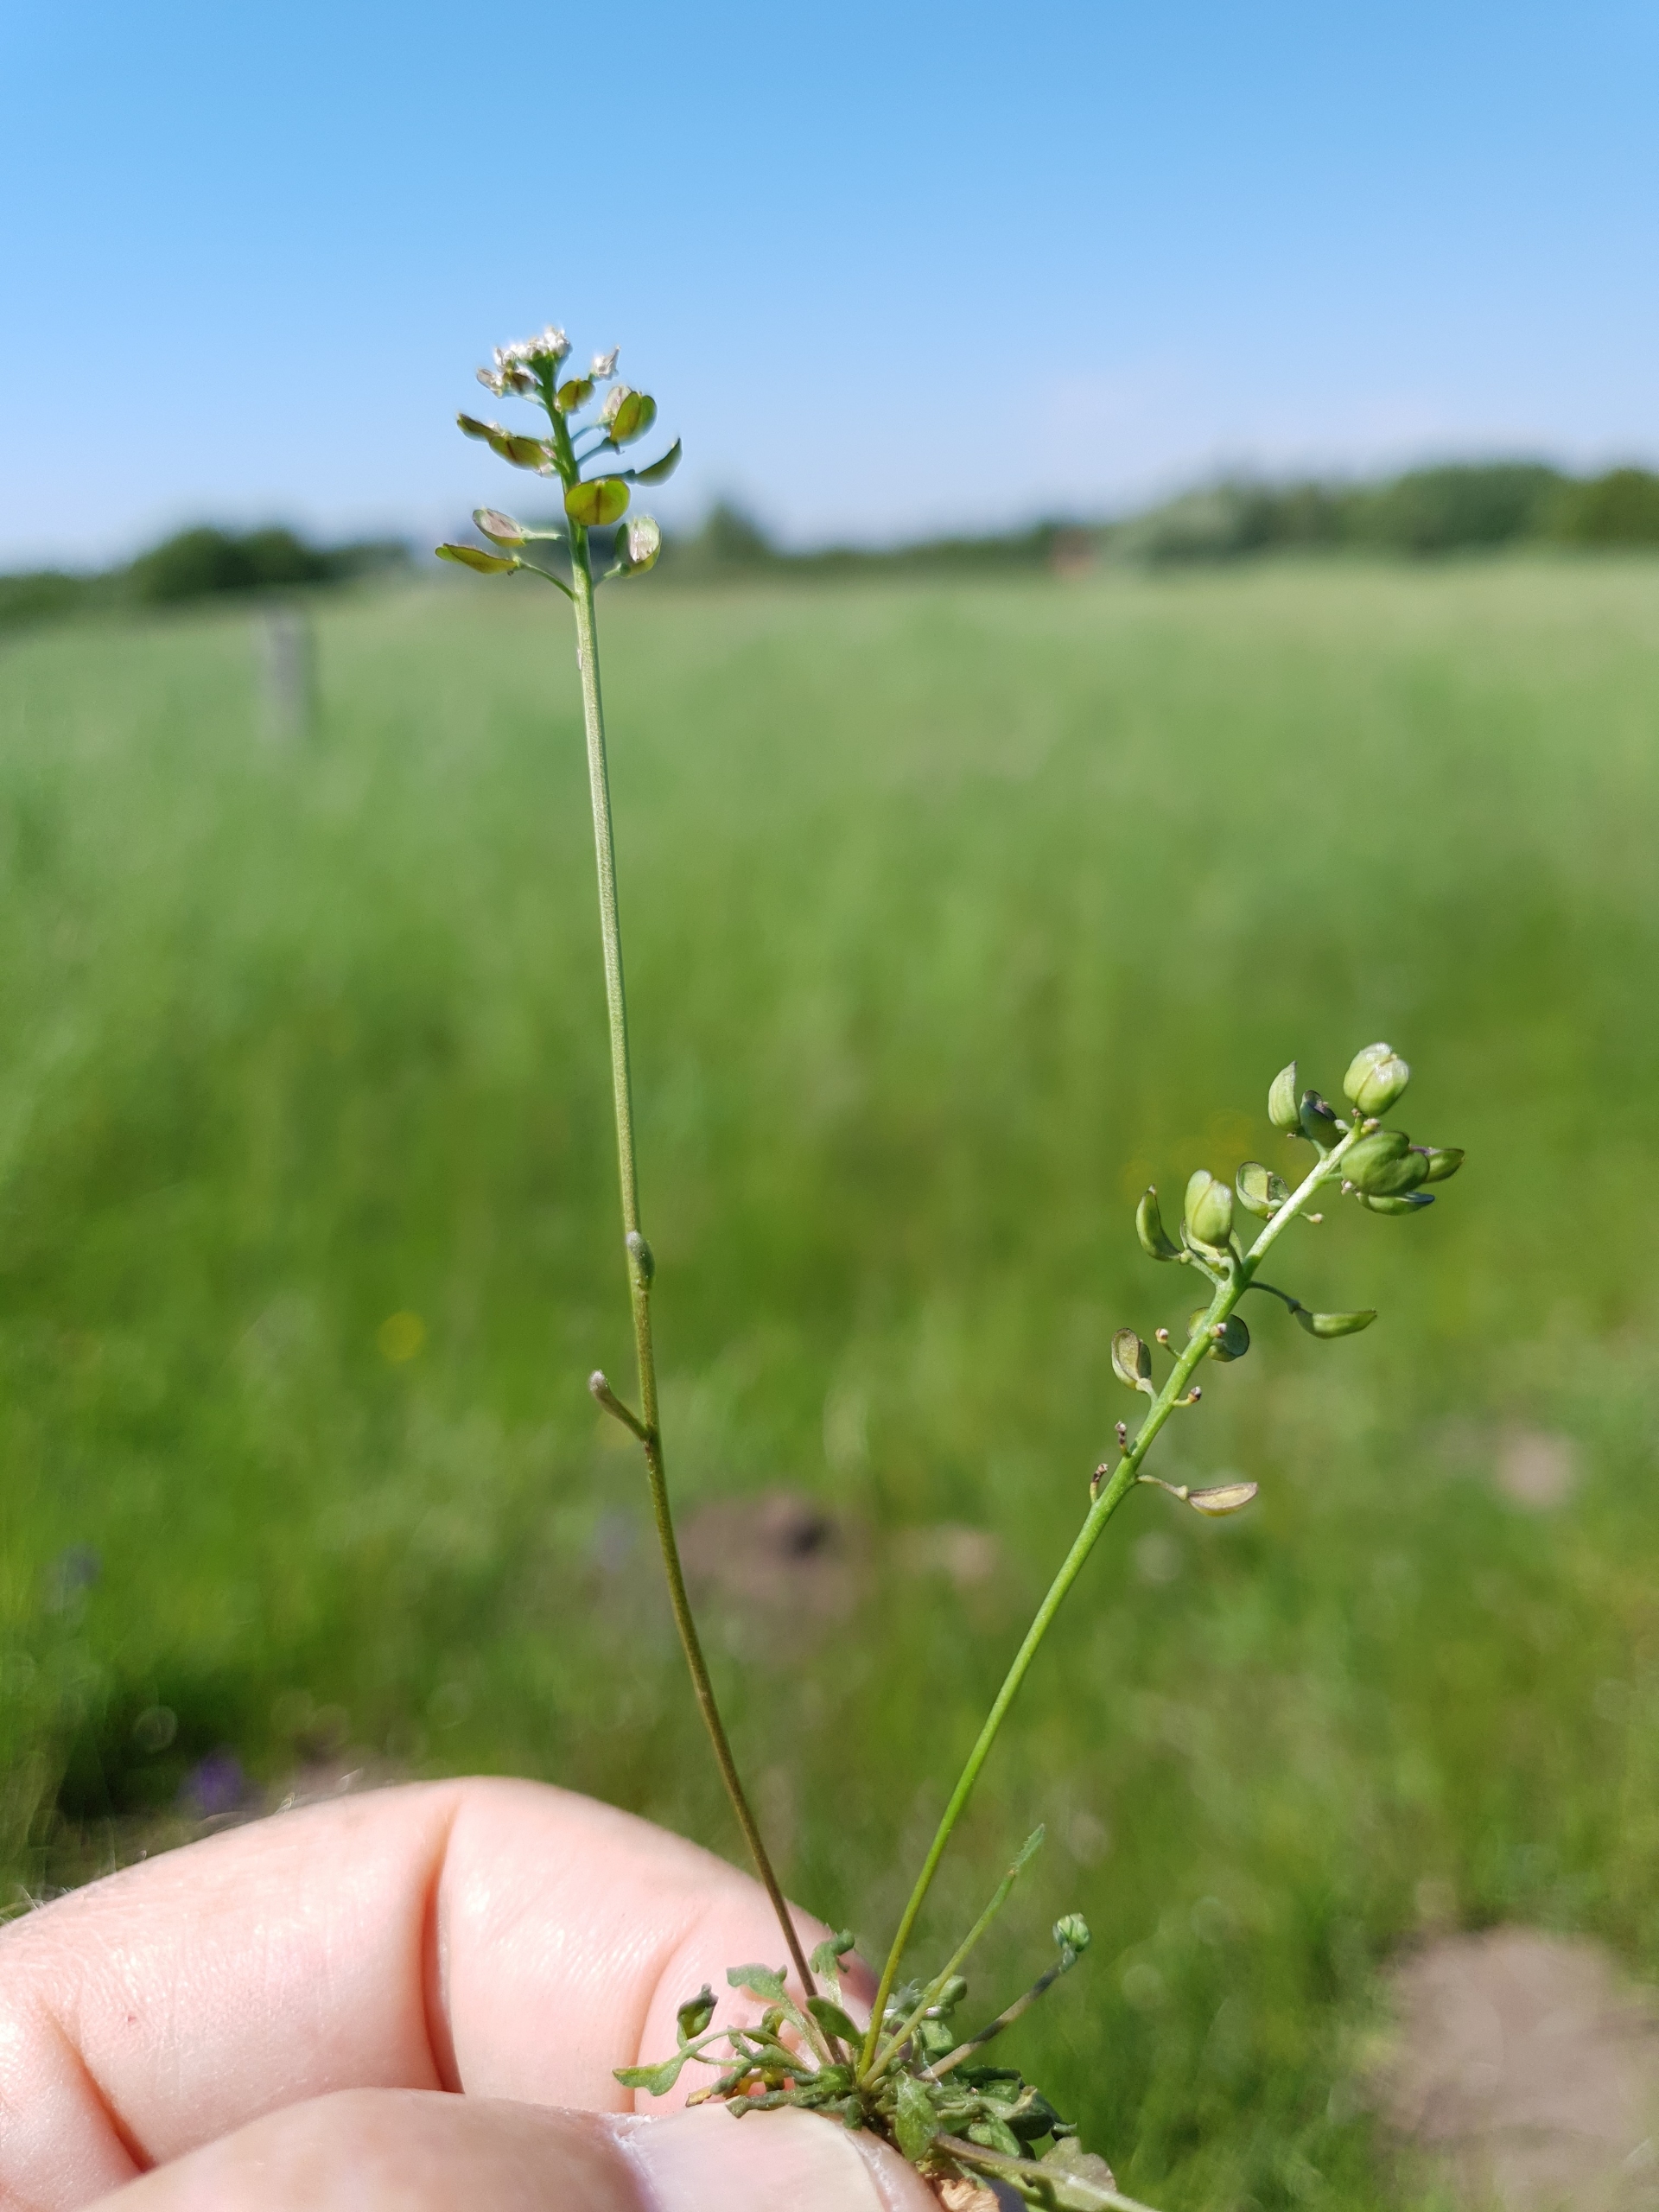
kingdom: Plantae
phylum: Tracheophyta
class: Magnoliopsida
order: Brassicales
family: Brassicaceae
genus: Teesdalia
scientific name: Teesdalia nudicaulis
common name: Flipkrave
